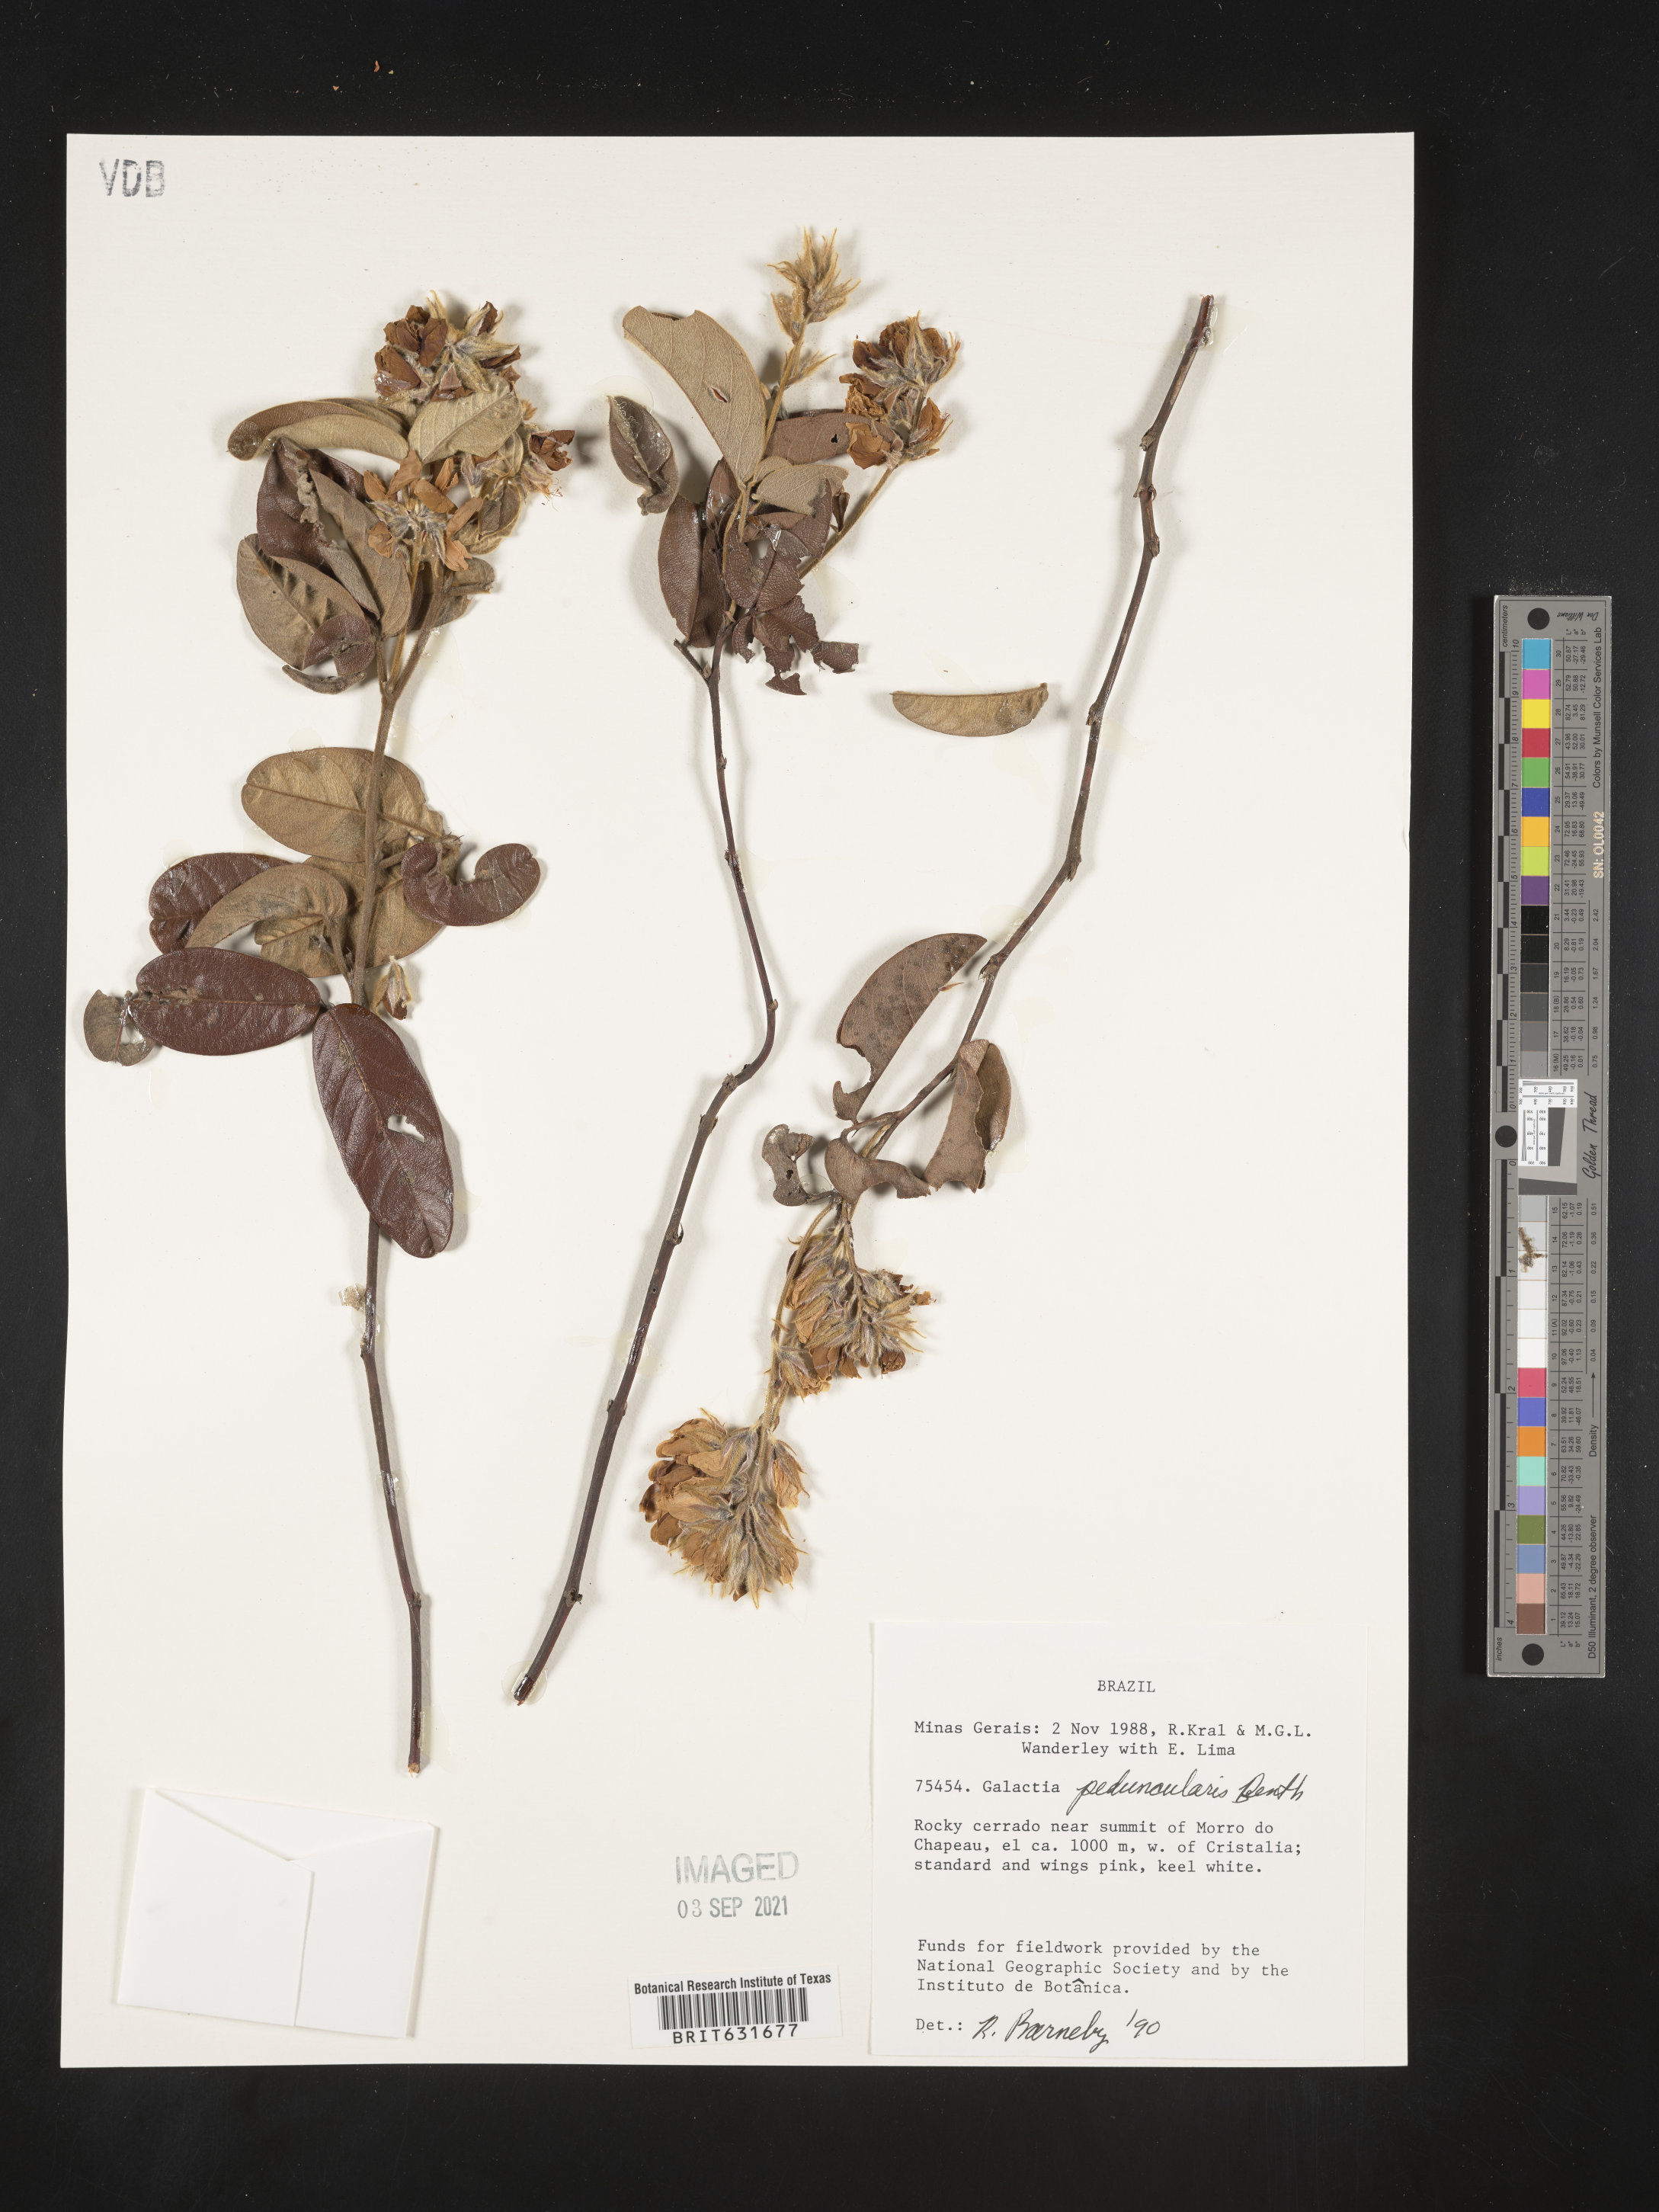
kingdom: Plantae
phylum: Tracheophyta
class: Magnoliopsida
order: Fabales
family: Fabaceae
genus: Galactia
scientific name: Galactia
